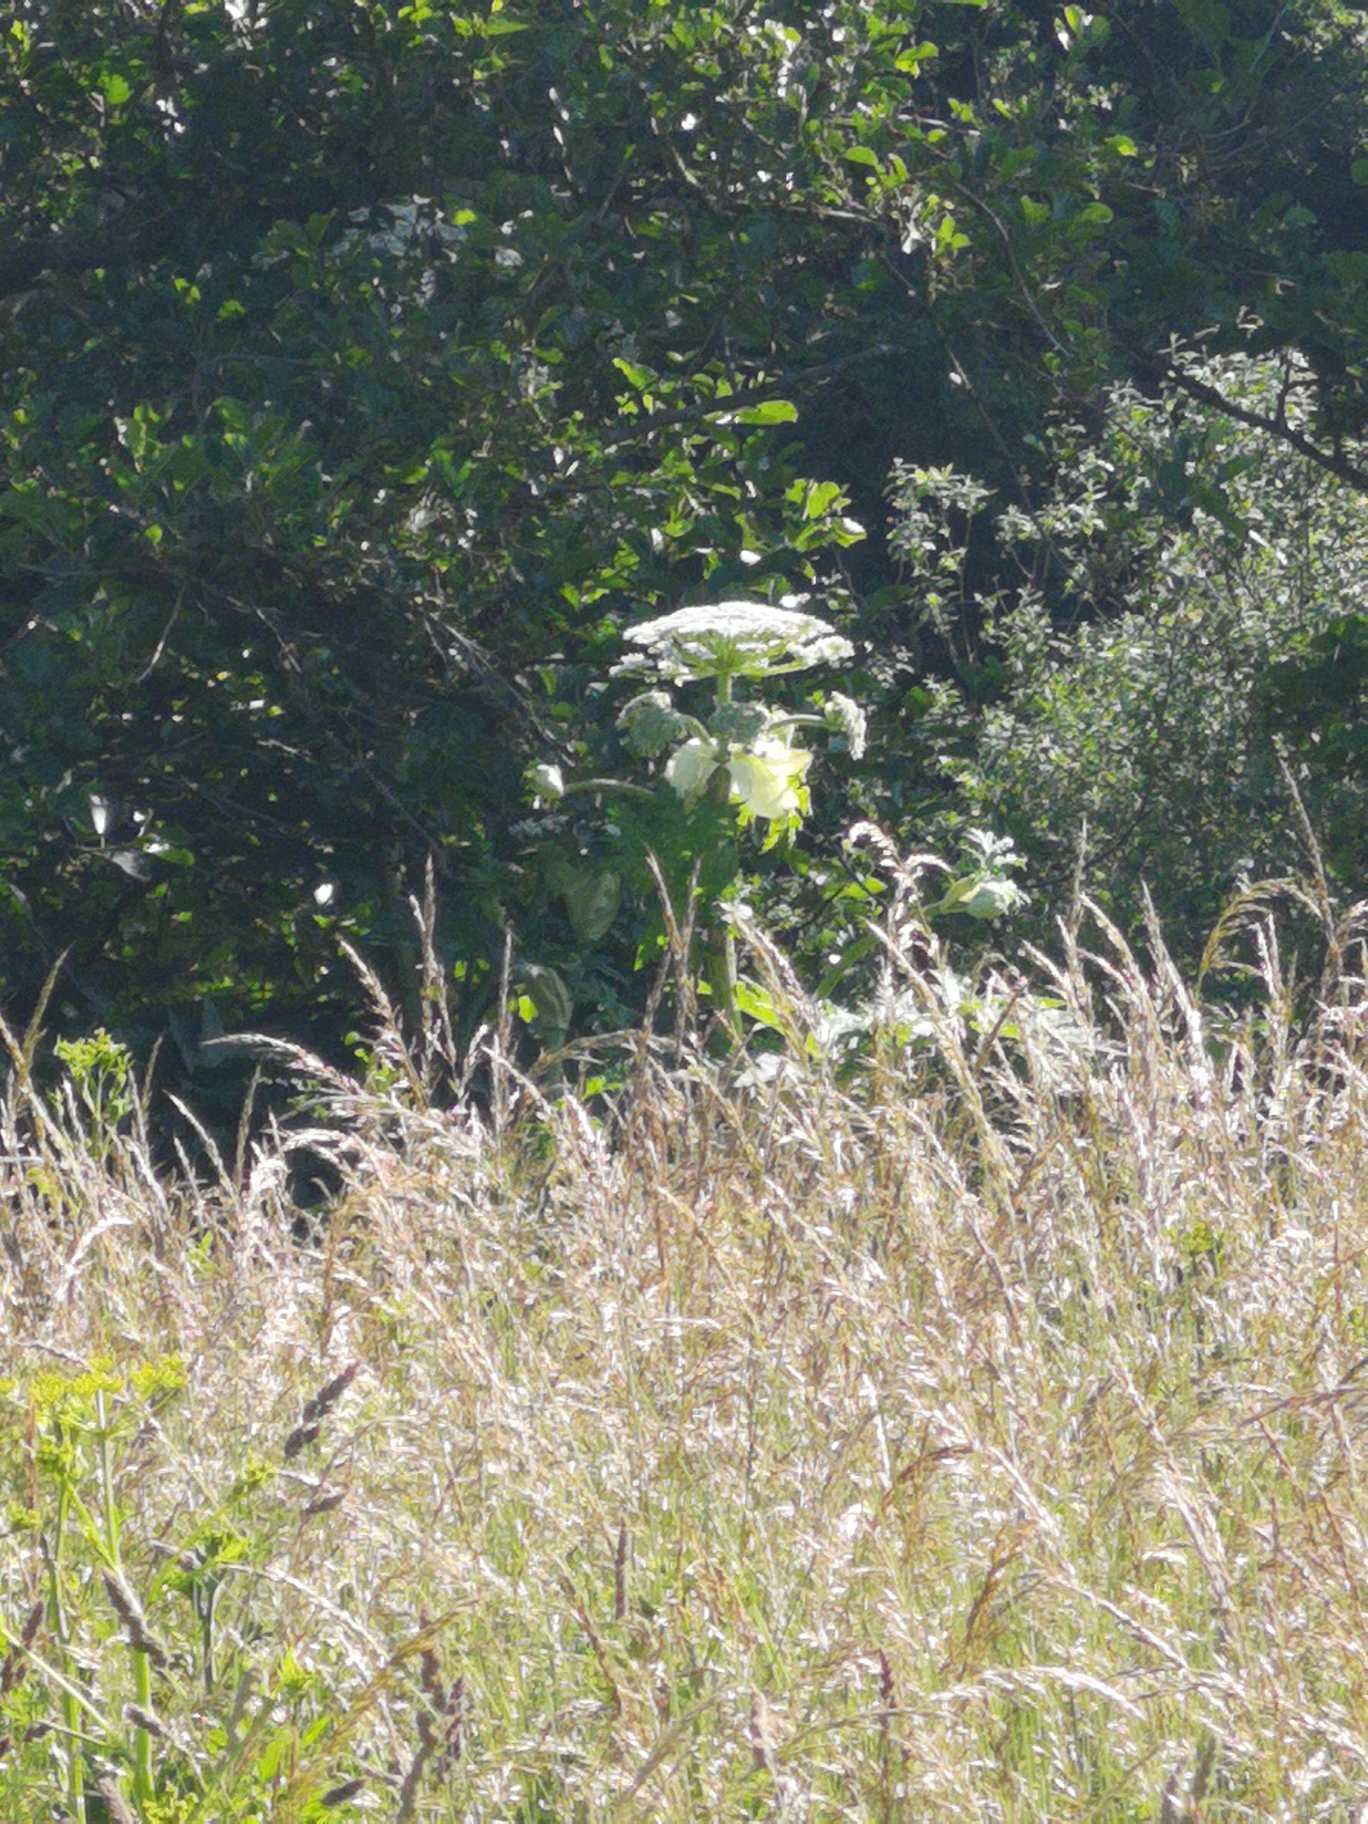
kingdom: Plantae
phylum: Tracheophyta
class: Magnoliopsida
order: Apiales
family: Apiaceae
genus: Heracleum
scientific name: Heracleum mantegazzianum
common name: Kæmpe-bjørneklo
